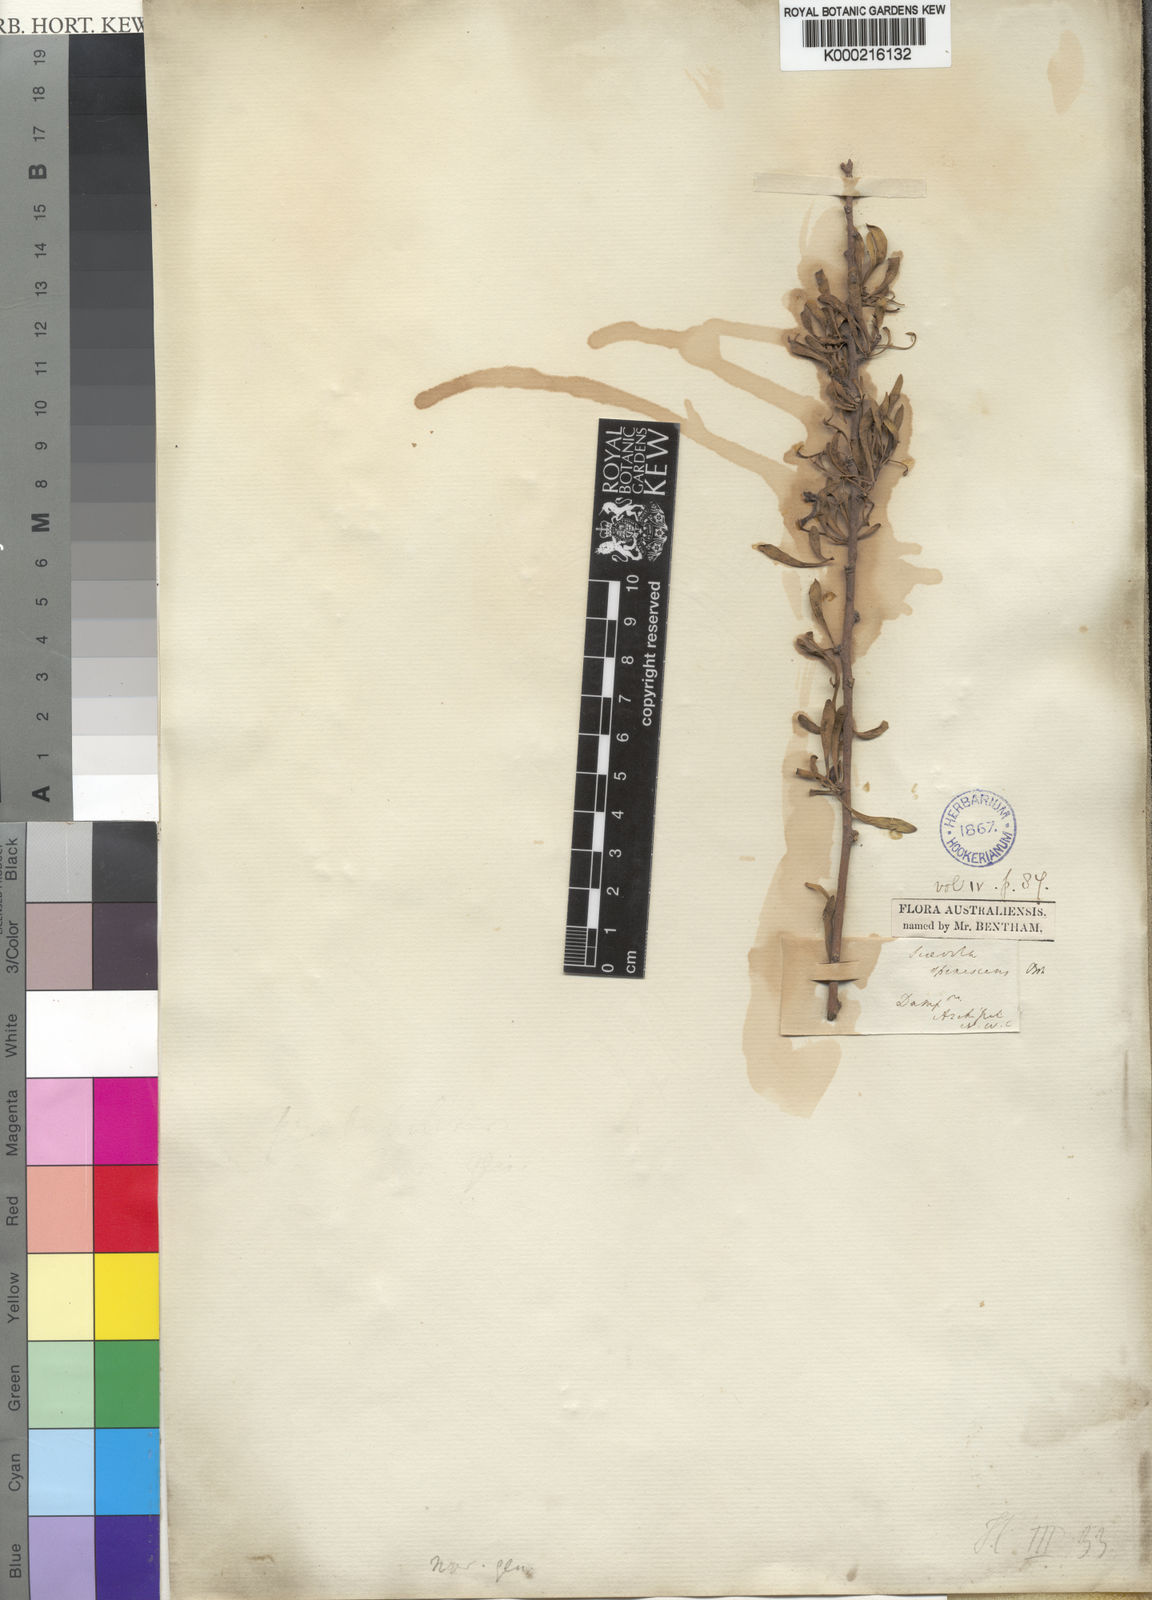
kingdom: Plantae
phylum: Tracheophyta
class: Magnoliopsida
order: Asterales
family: Goodeniaceae
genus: Scaevola
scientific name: Scaevola spinescens
